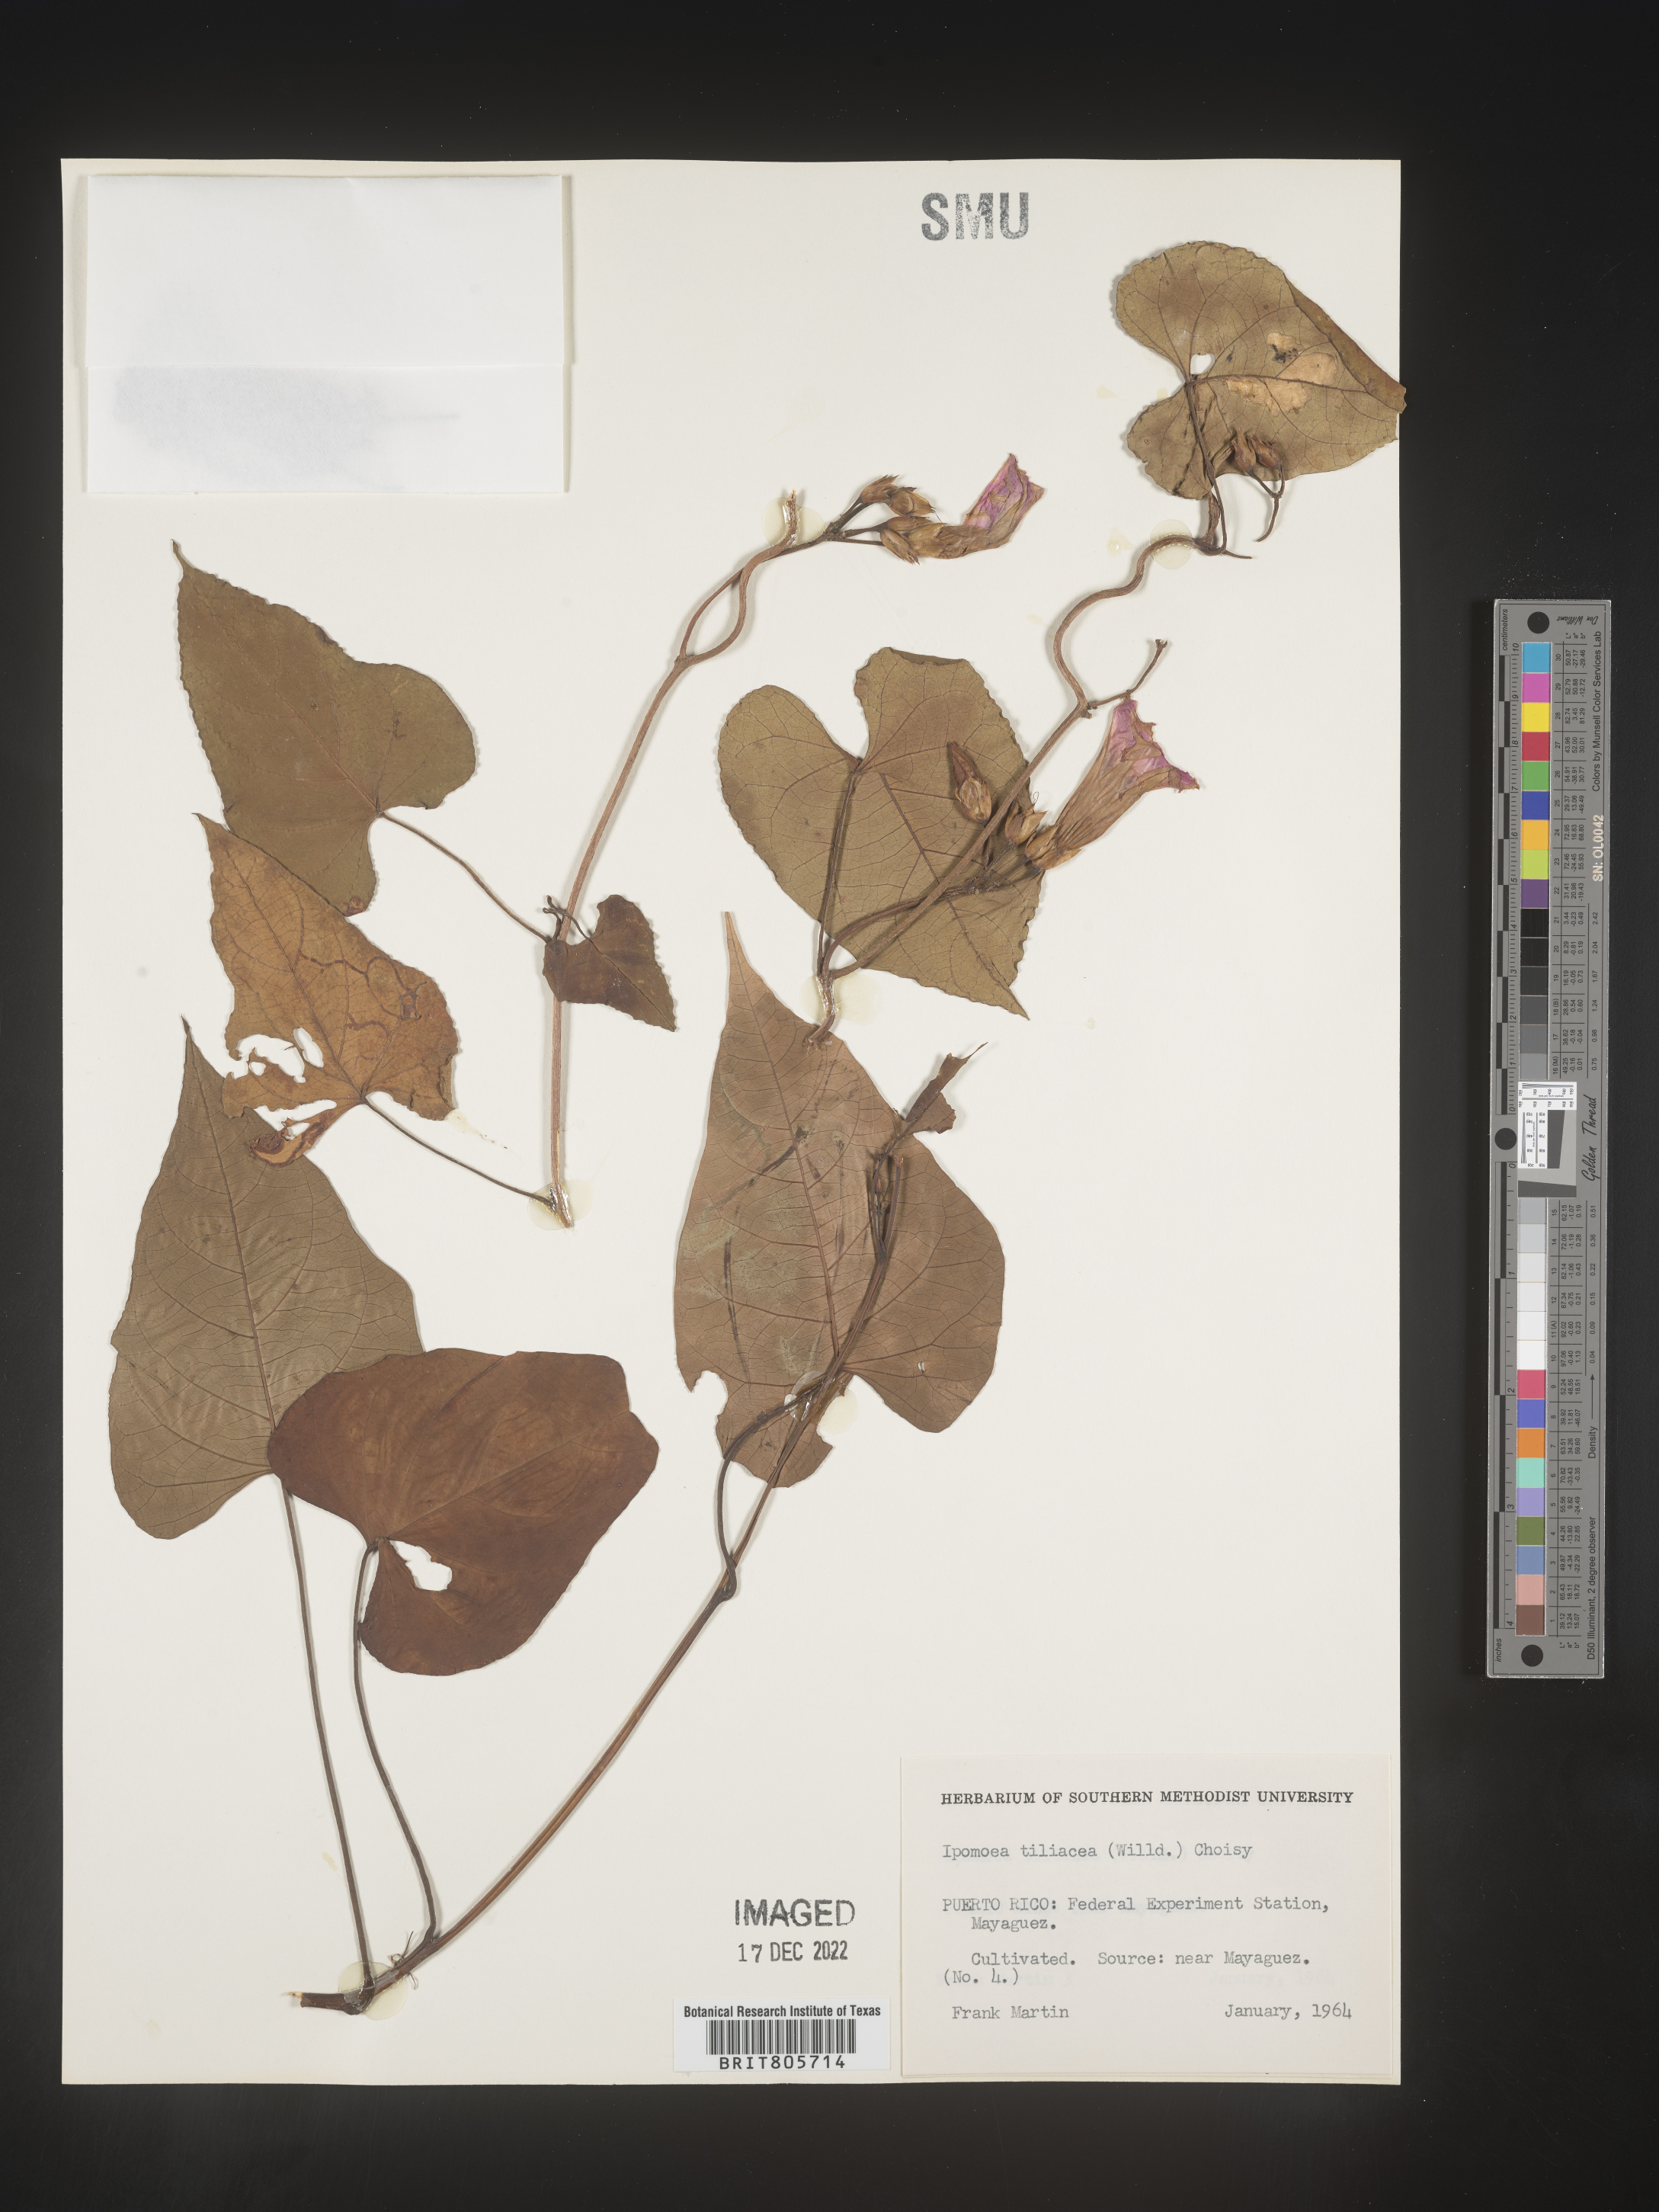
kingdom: Plantae
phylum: Tracheophyta
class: Magnoliopsida
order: Solanales
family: Convolvulaceae
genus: Ipomoea
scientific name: Ipomoea
